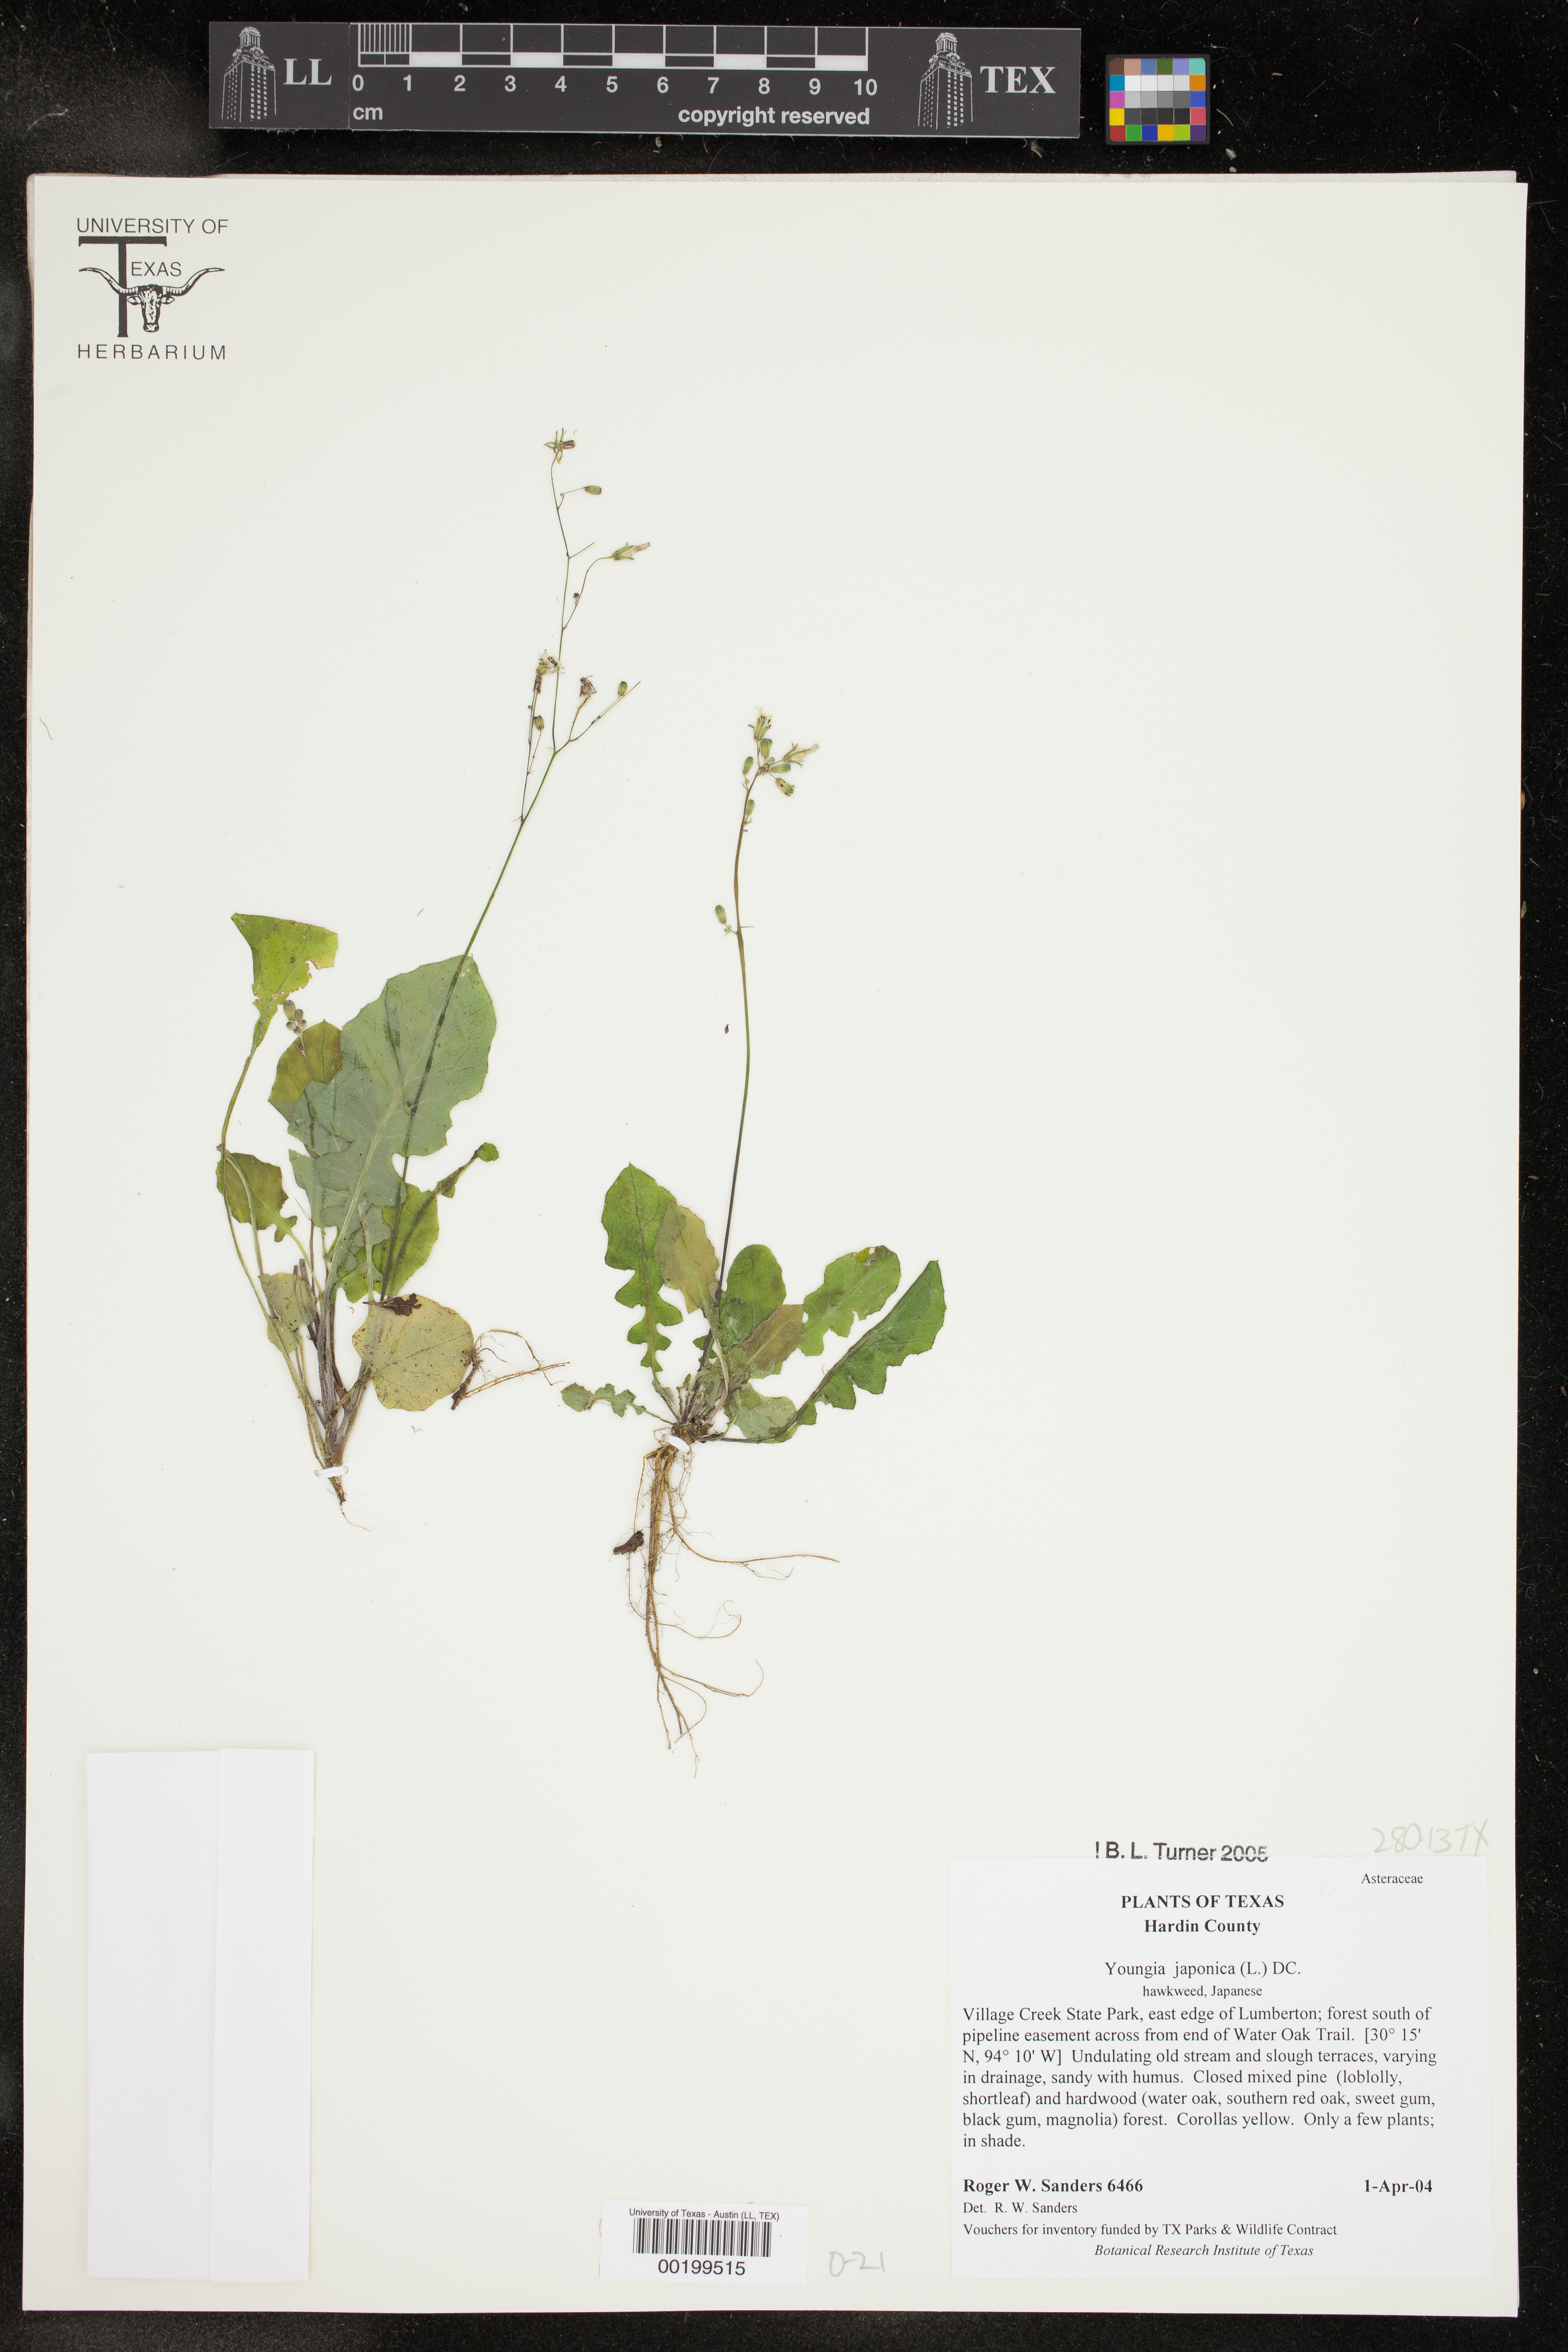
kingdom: Plantae
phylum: Tracheophyta
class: Magnoliopsida
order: Asterales
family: Asteraceae
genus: Youngia
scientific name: Youngia japonica
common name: Oriental false hawksbeard
